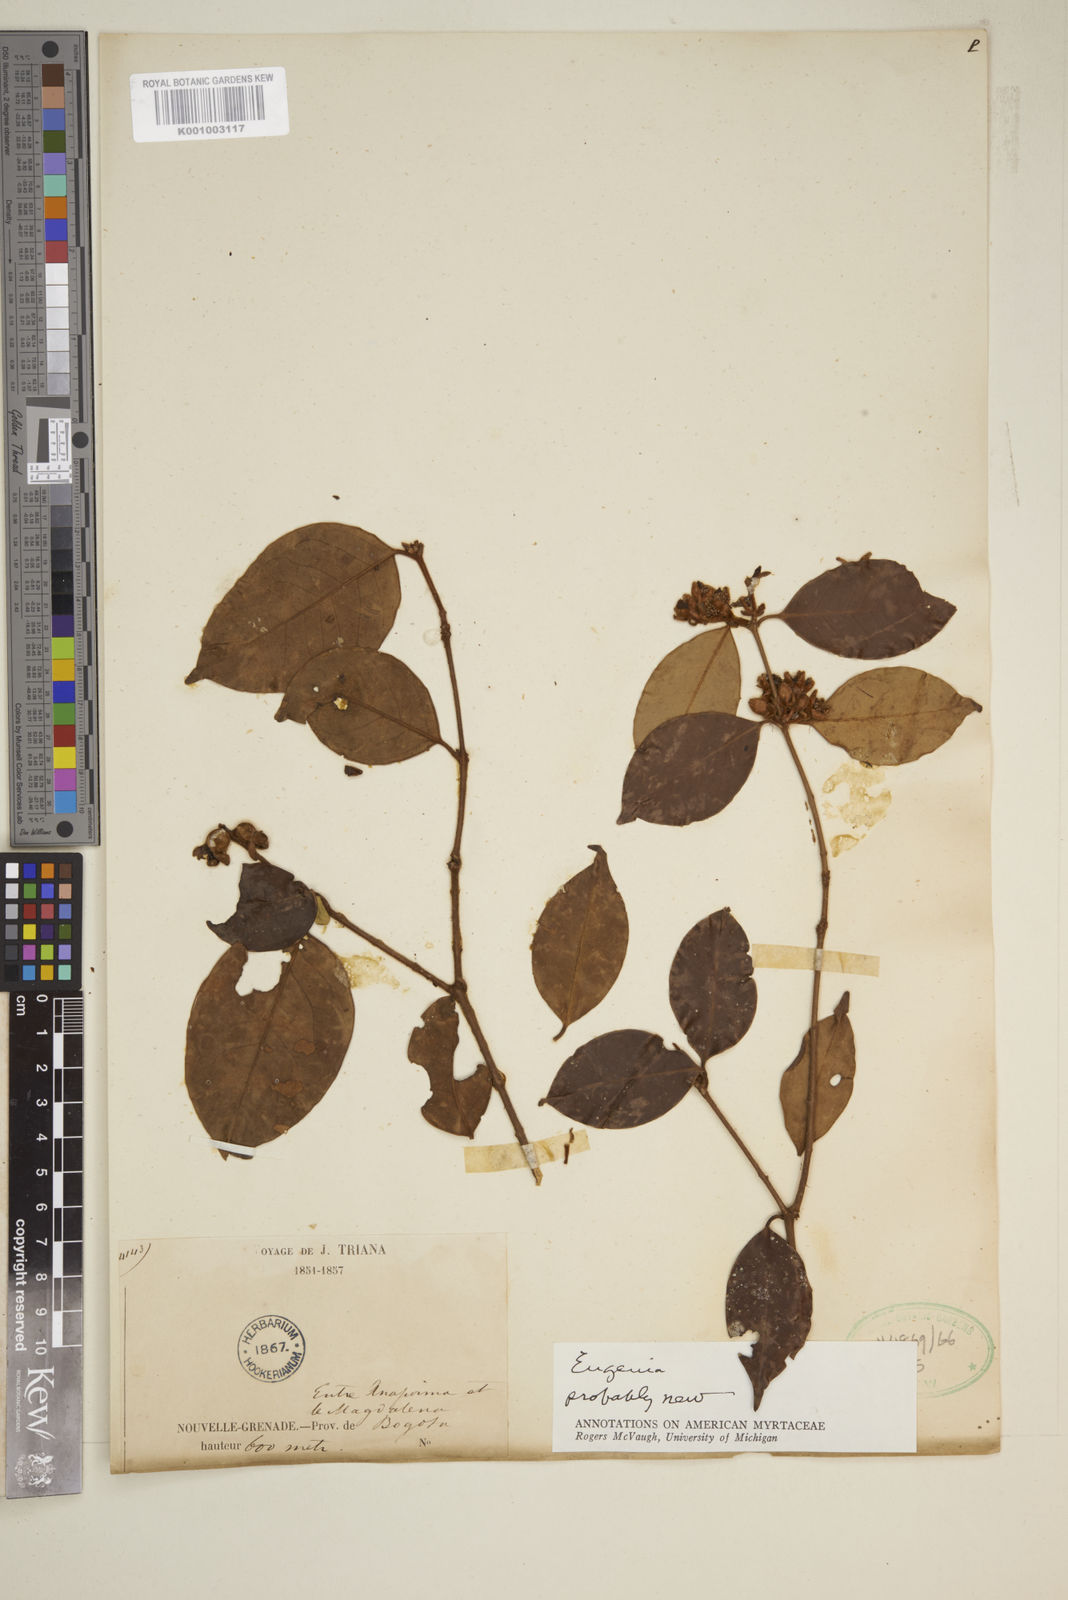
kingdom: Plantae
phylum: Tracheophyta
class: Magnoliopsida
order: Myrtales
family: Myrtaceae
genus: Eugenia
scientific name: Eugenia
